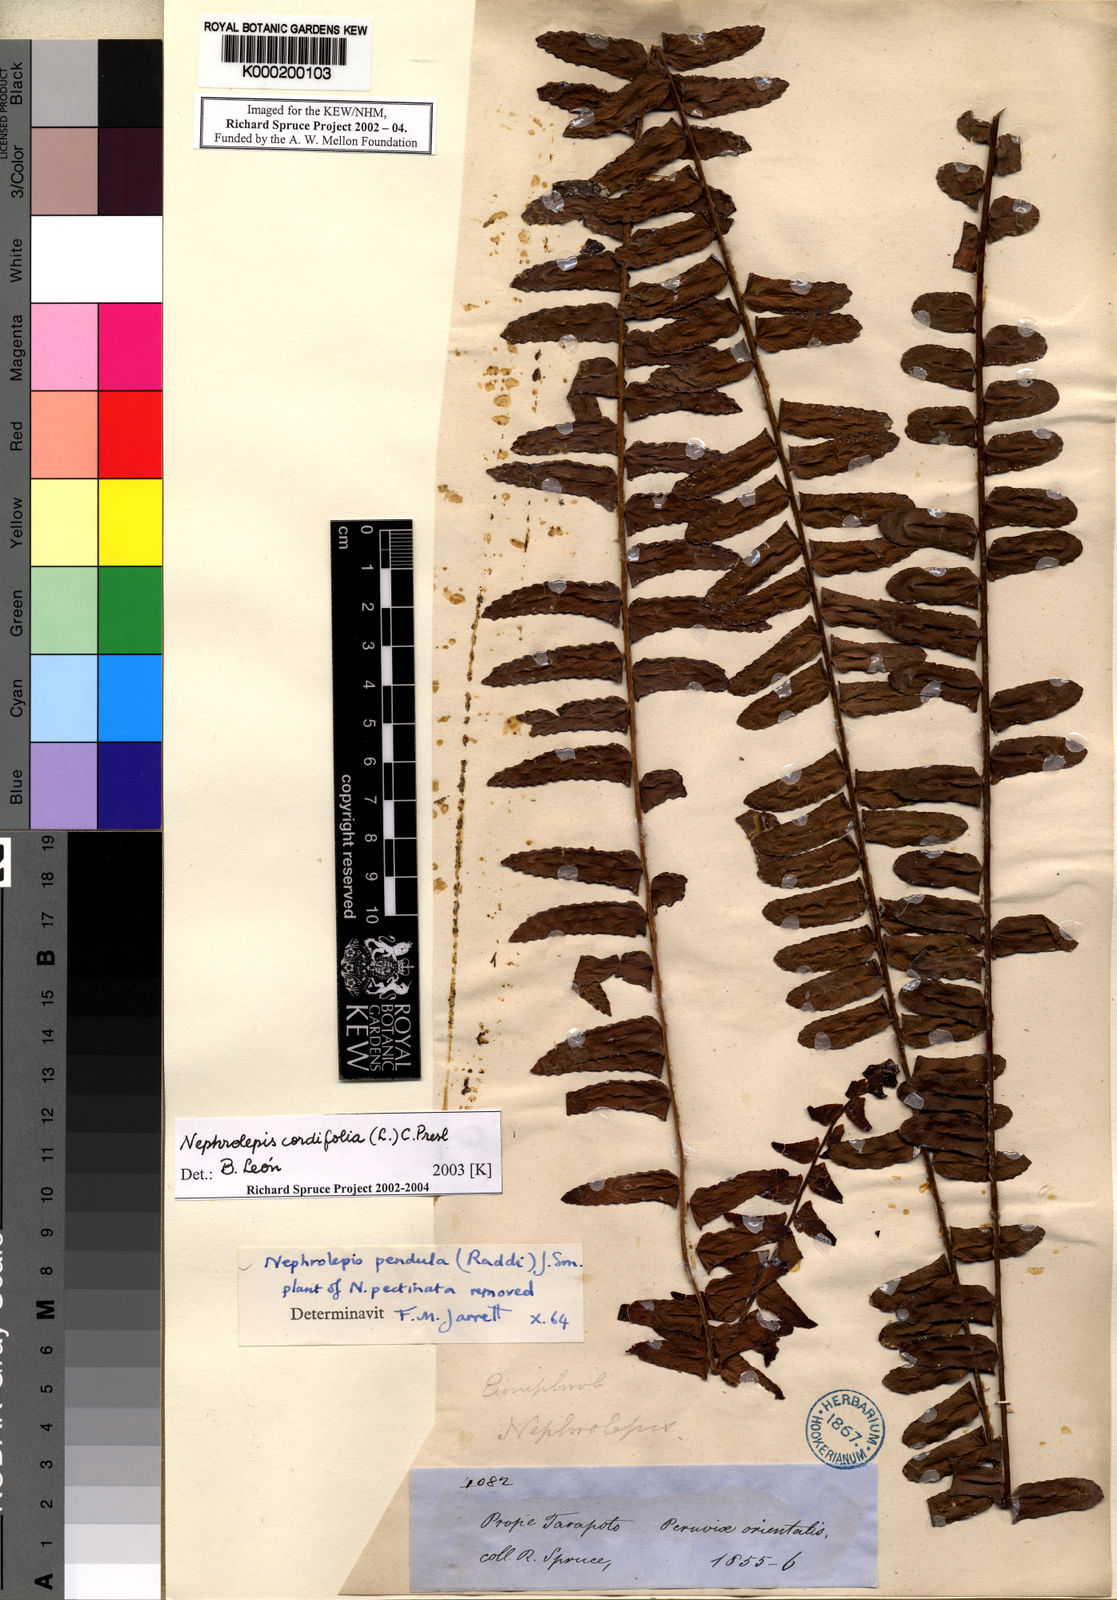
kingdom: Plantae
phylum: Tracheophyta
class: Polypodiopsida
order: Polypodiales
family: Nephrolepidaceae
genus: Nephrolepis
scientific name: Nephrolepis cordifolia
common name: Narrow swordfern
